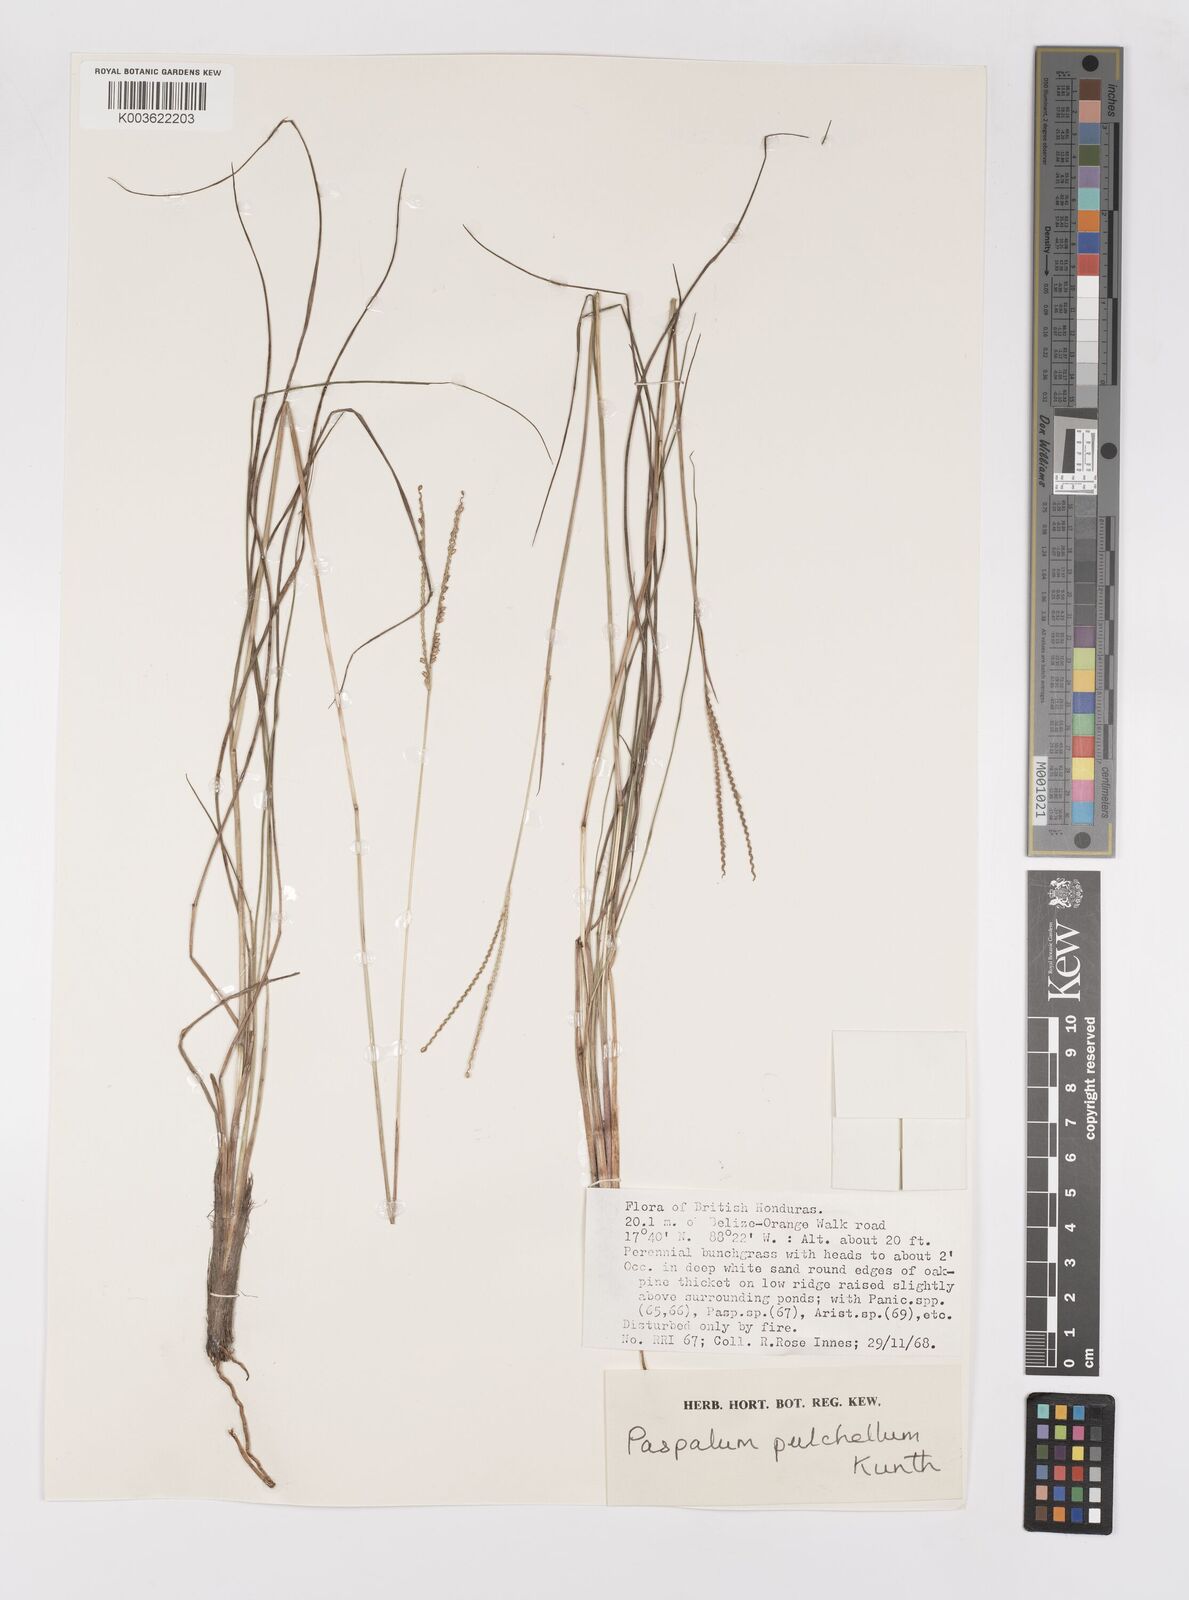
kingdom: Plantae
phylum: Tracheophyta
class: Liliopsida
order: Poales
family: Poaceae
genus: Paspalum
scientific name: Paspalum pulchellum
